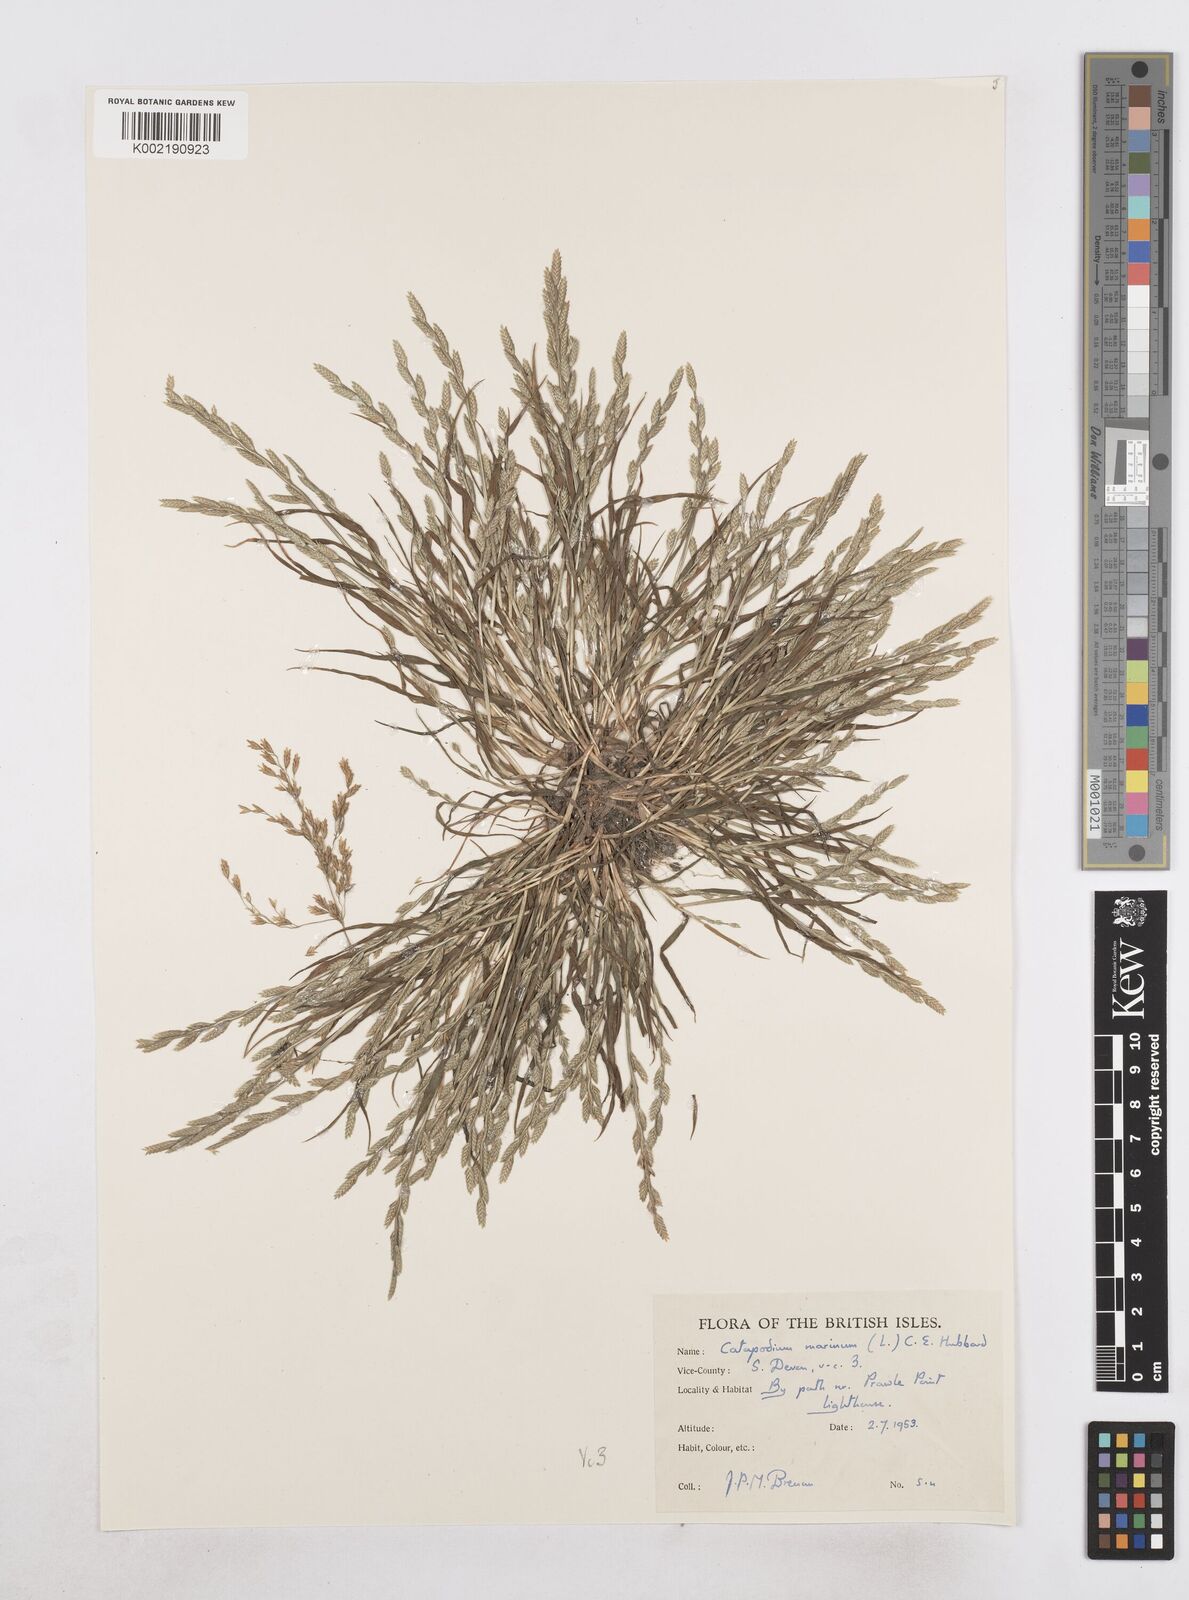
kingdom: Plantae
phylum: Tracheophyta
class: Liliopsida
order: Poales
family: Poaceae
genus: Catapodium
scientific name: Catapodium marinum
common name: Sea fern-grass
